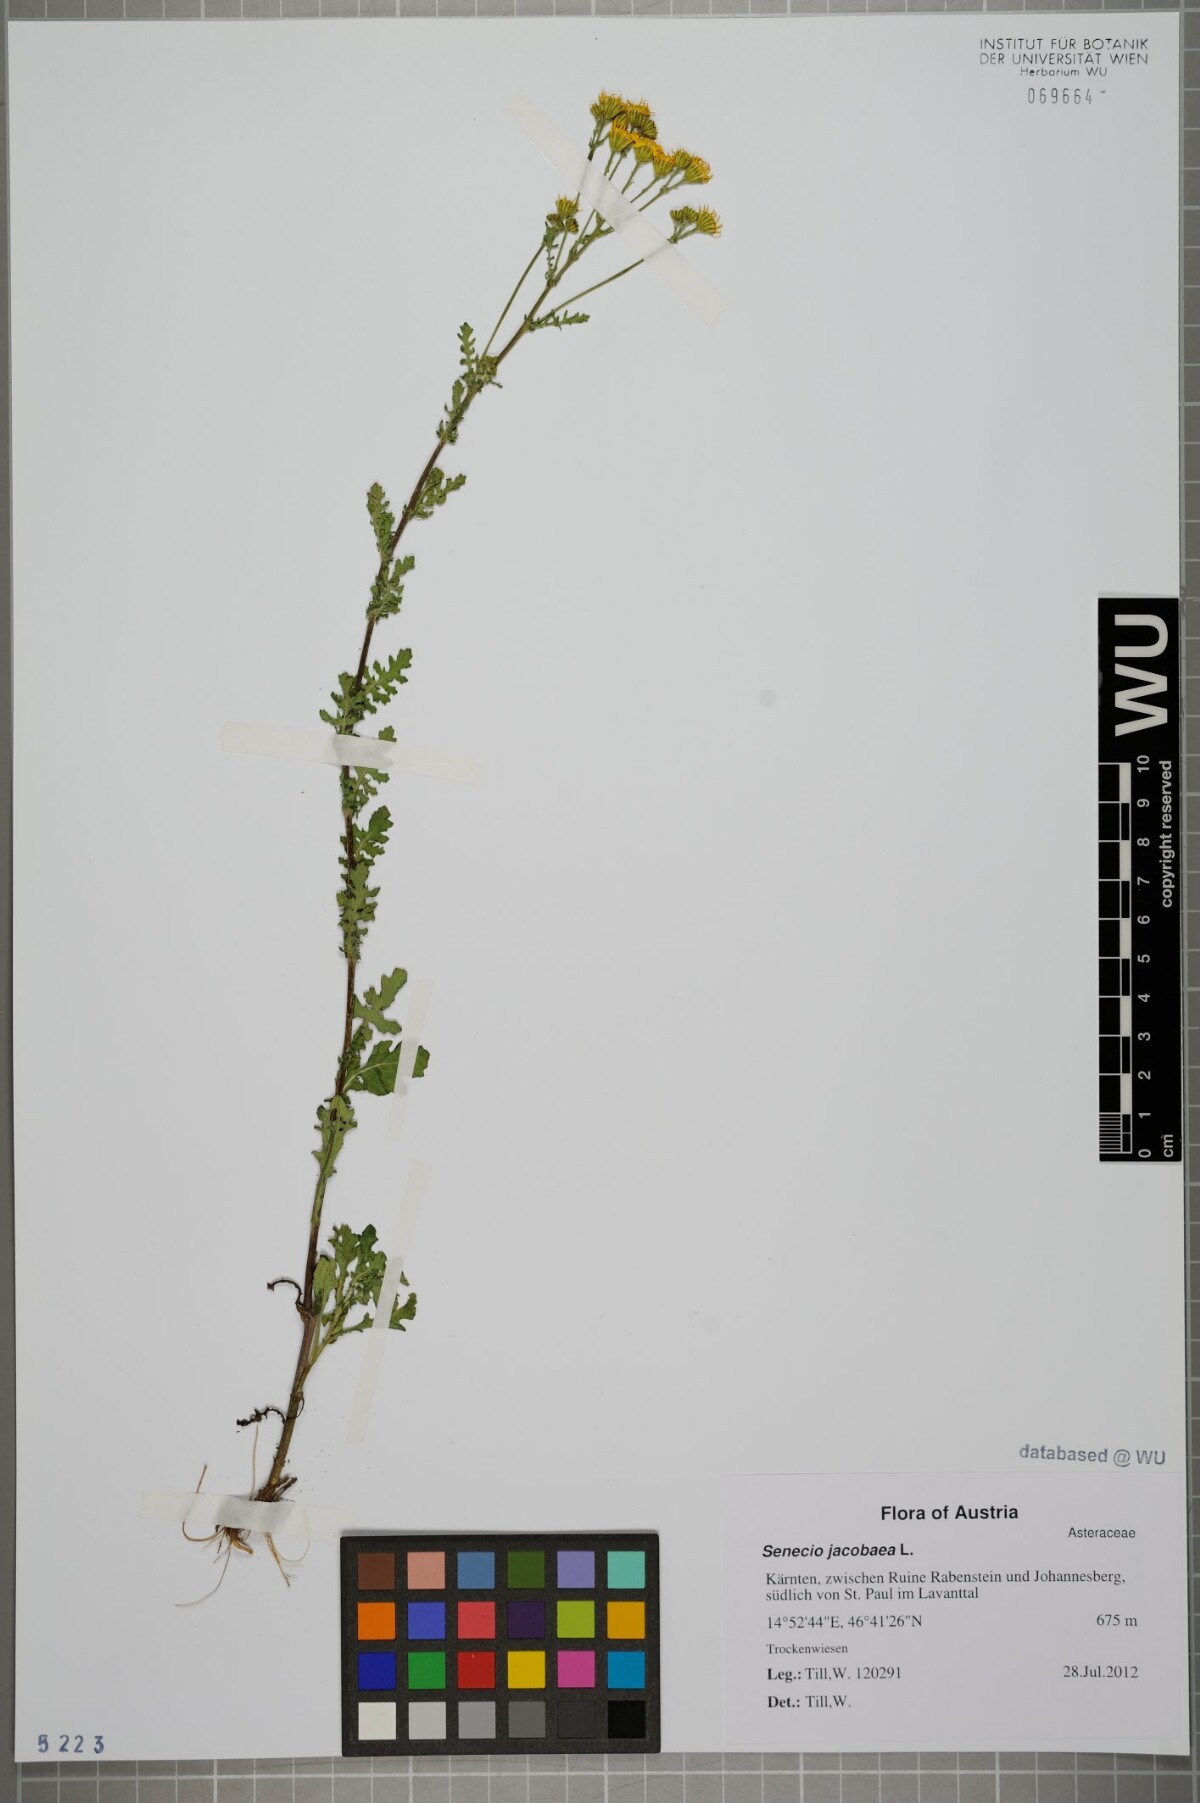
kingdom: Plantae
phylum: Tracheophyta
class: Magnoliopsida
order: Asterales
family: Asteraceae
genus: Jacobaea
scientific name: Jacobaea vulgaris
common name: Stinking willie
